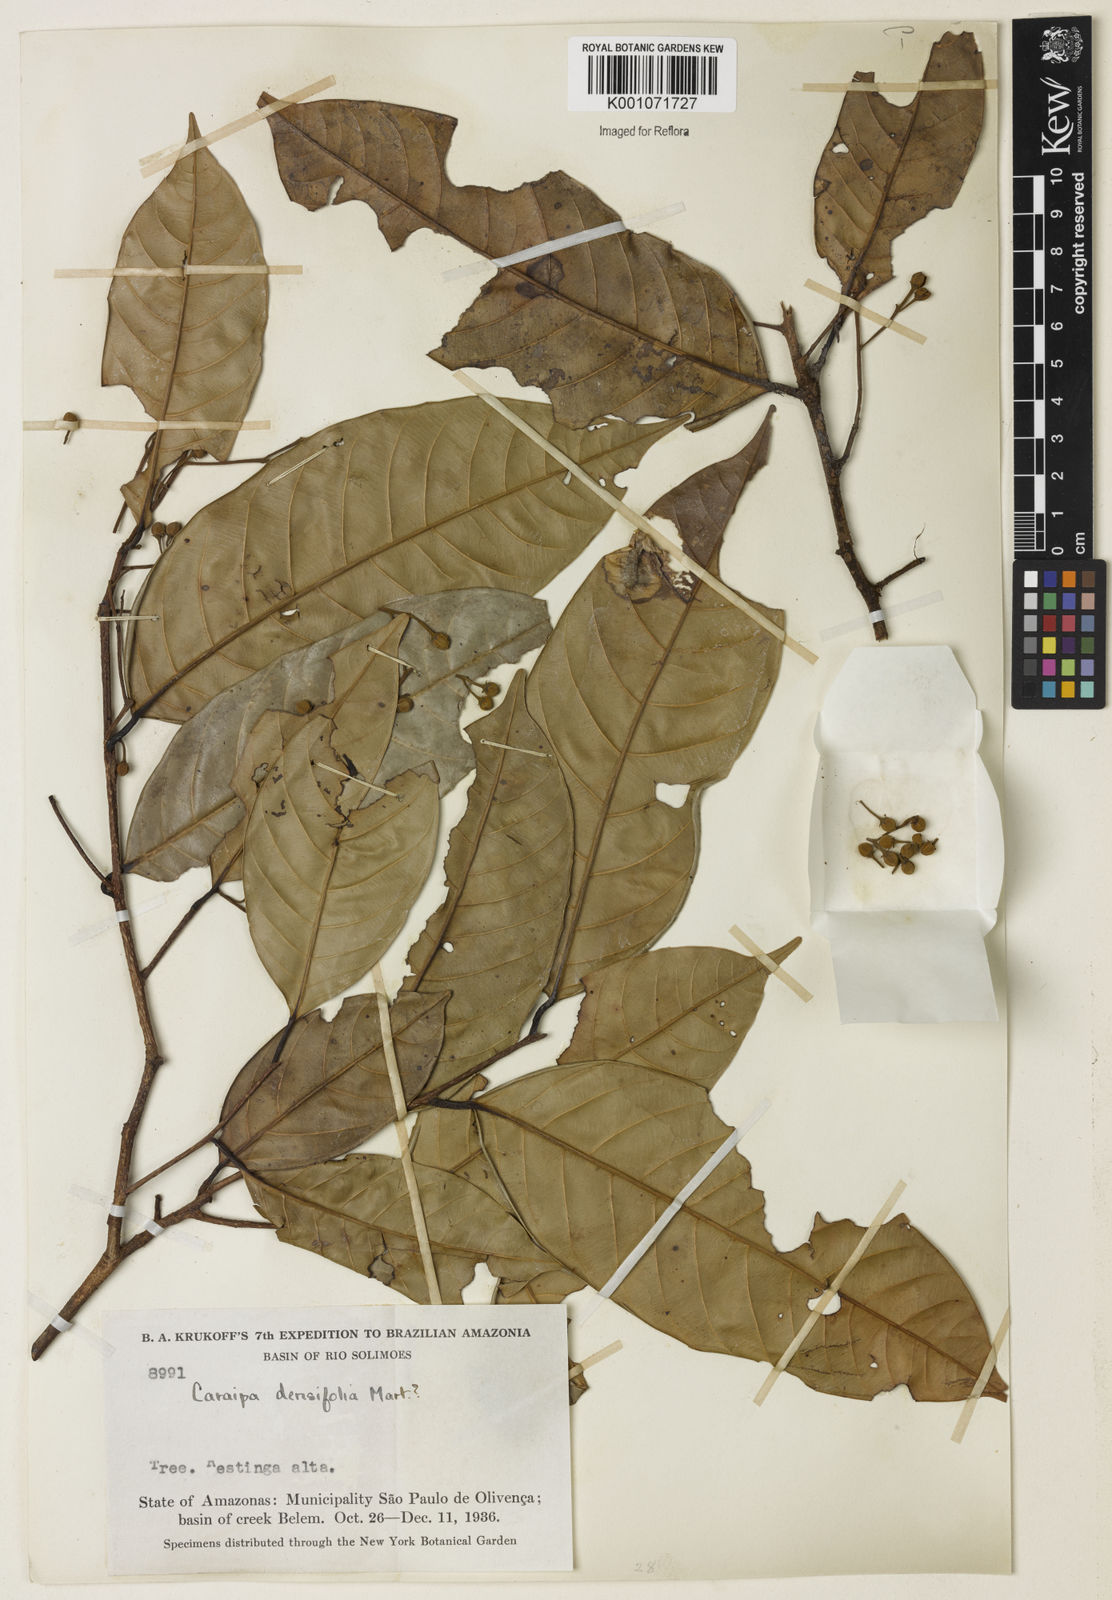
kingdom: Plantae
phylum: Tracheophyta
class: Magnoliopsida
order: Malpighiales
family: Calophyllaceae
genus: Caraipa
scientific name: Caraipa densifolia
